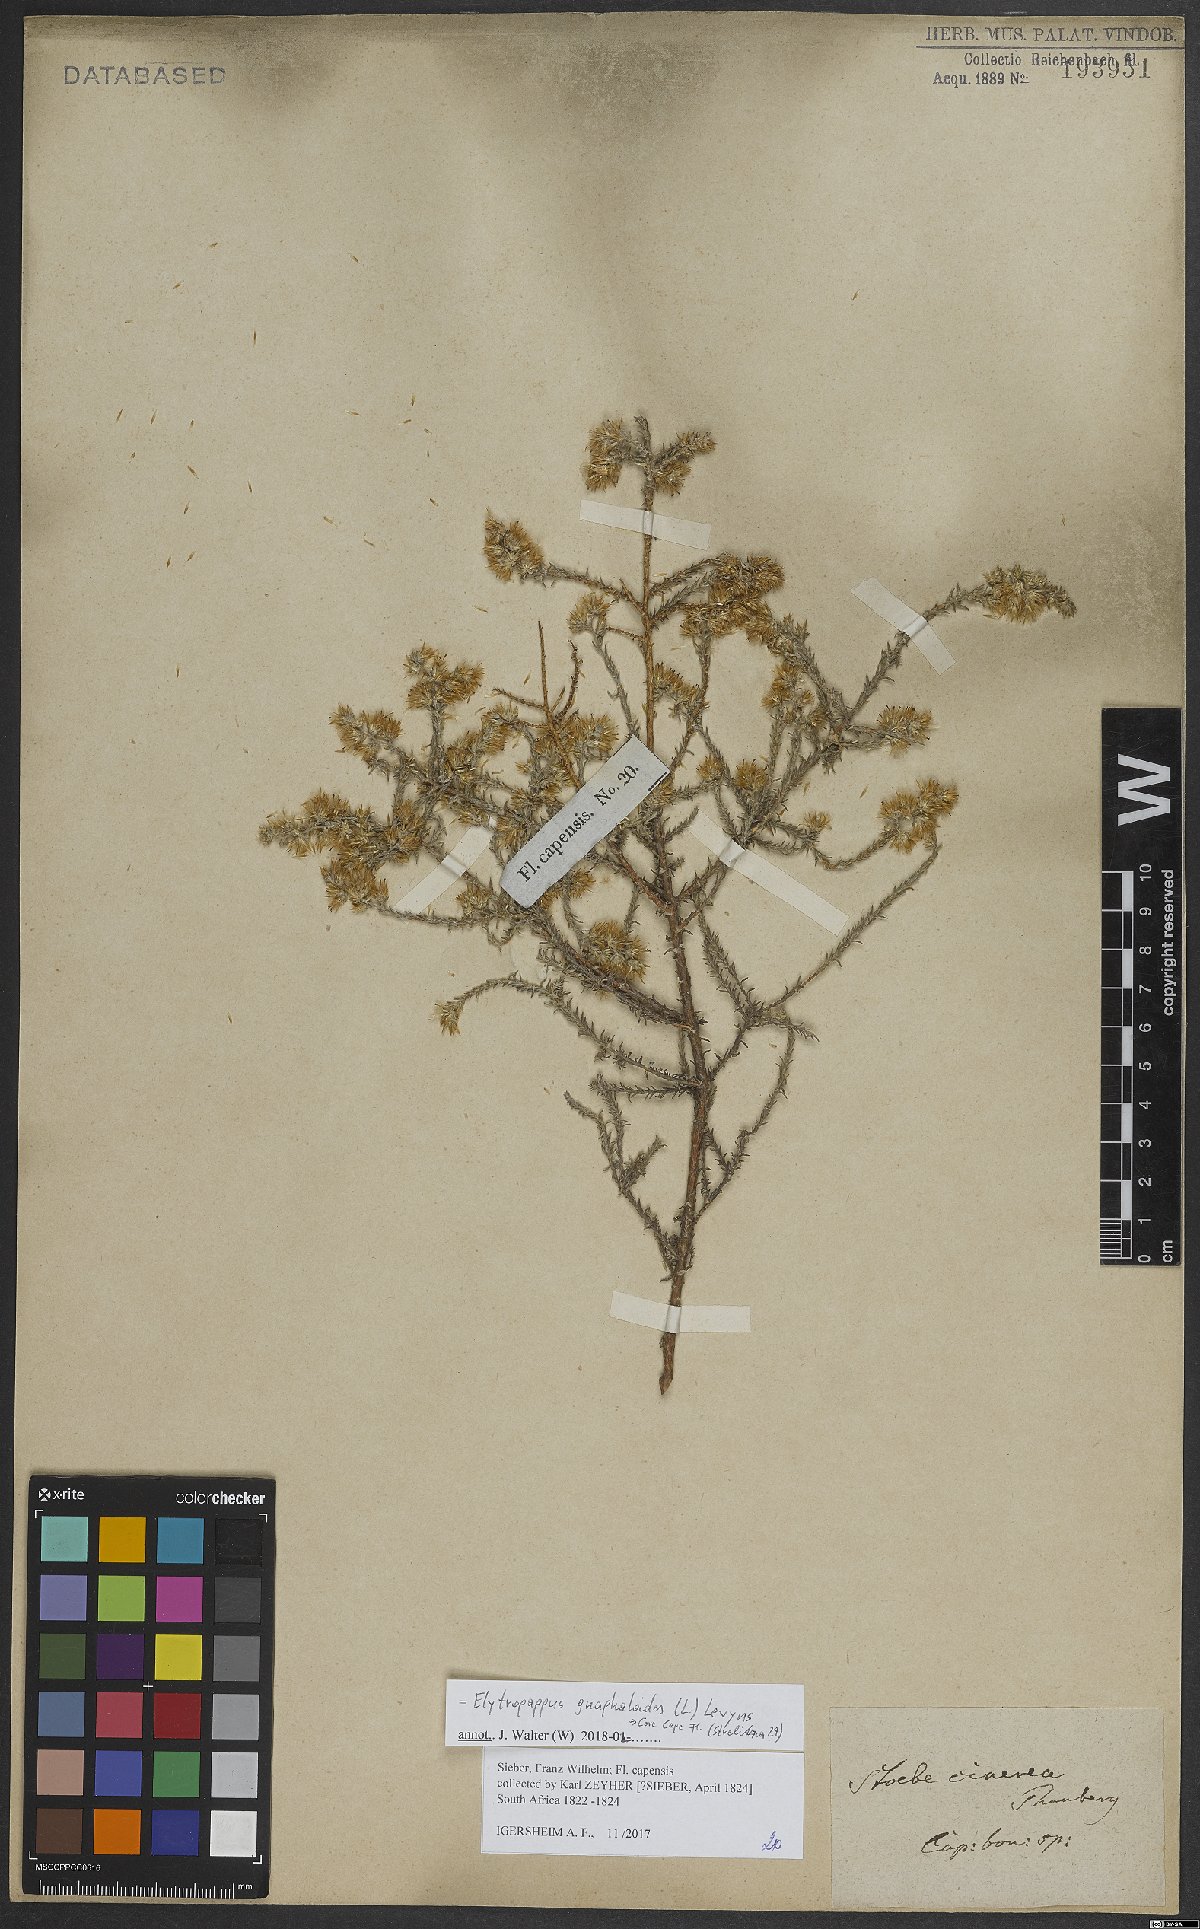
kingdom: Plantae
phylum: Tracheophyta
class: Magnoliopsida
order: Asterales
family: Asteraceae
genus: Myrovernix
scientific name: Myrovernix gnaphaloides
